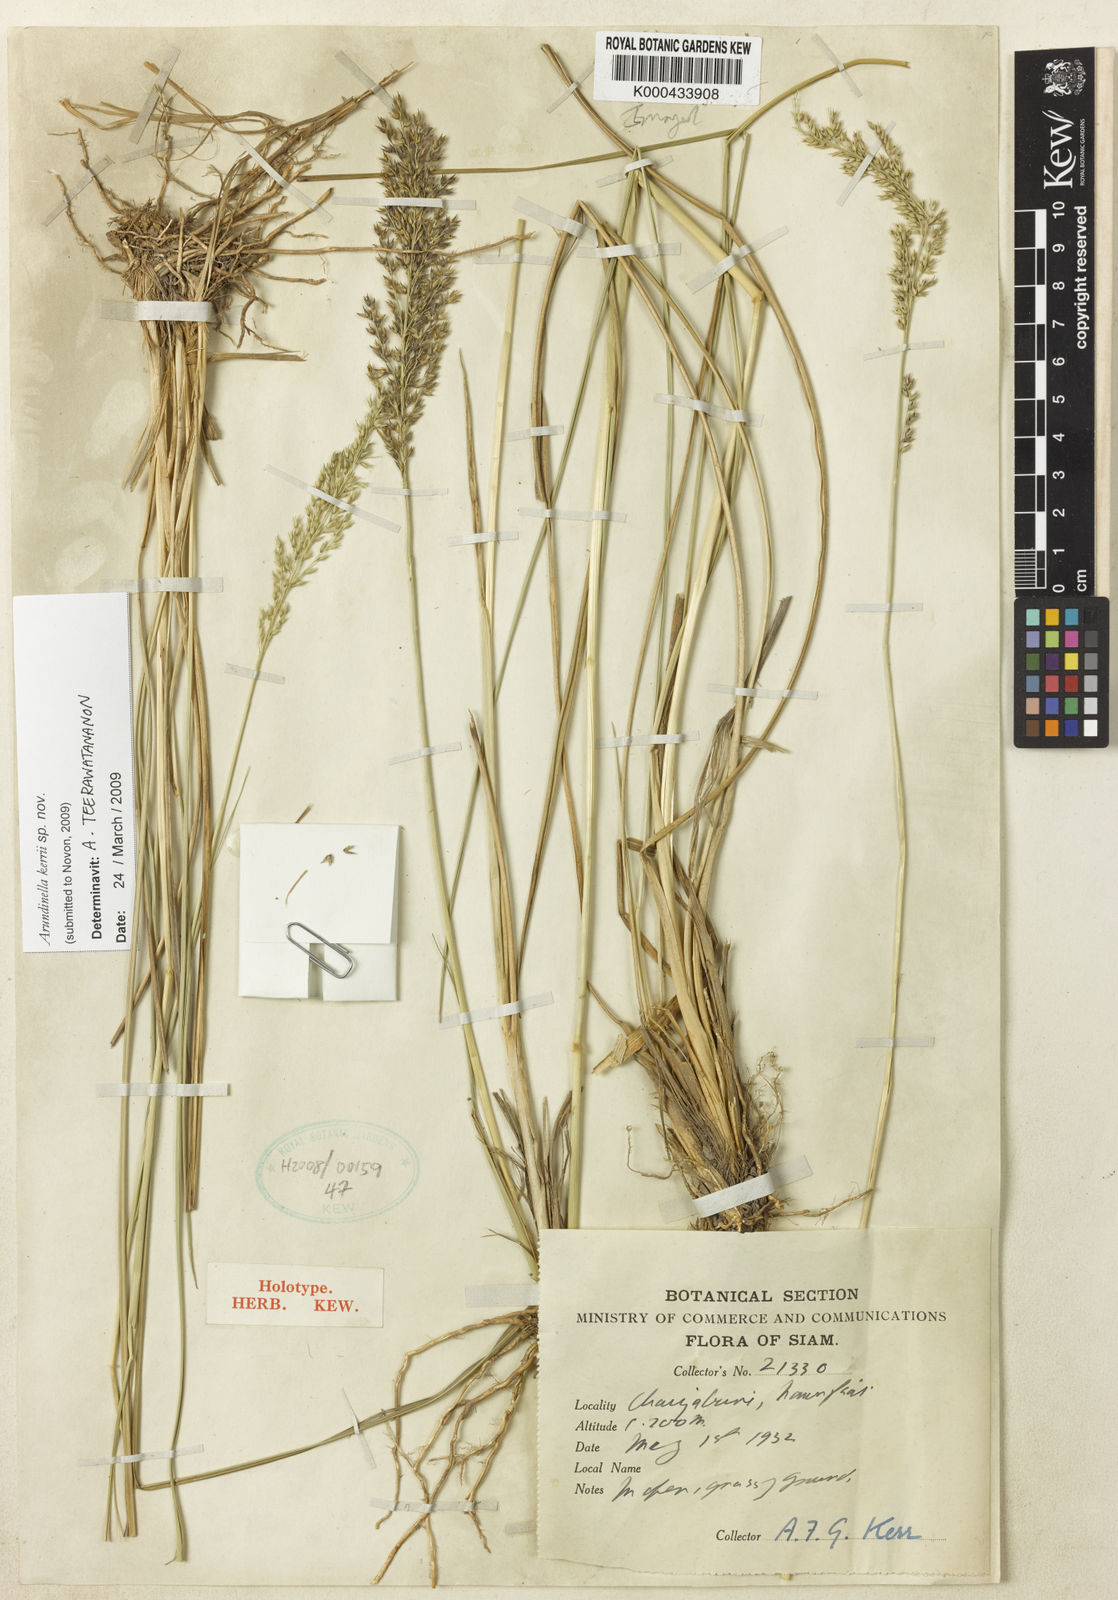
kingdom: Plantae
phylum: Tracheophyta
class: Liliopsida
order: Poales
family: Poaceae
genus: Arundinella
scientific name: Arundinella kerrii
